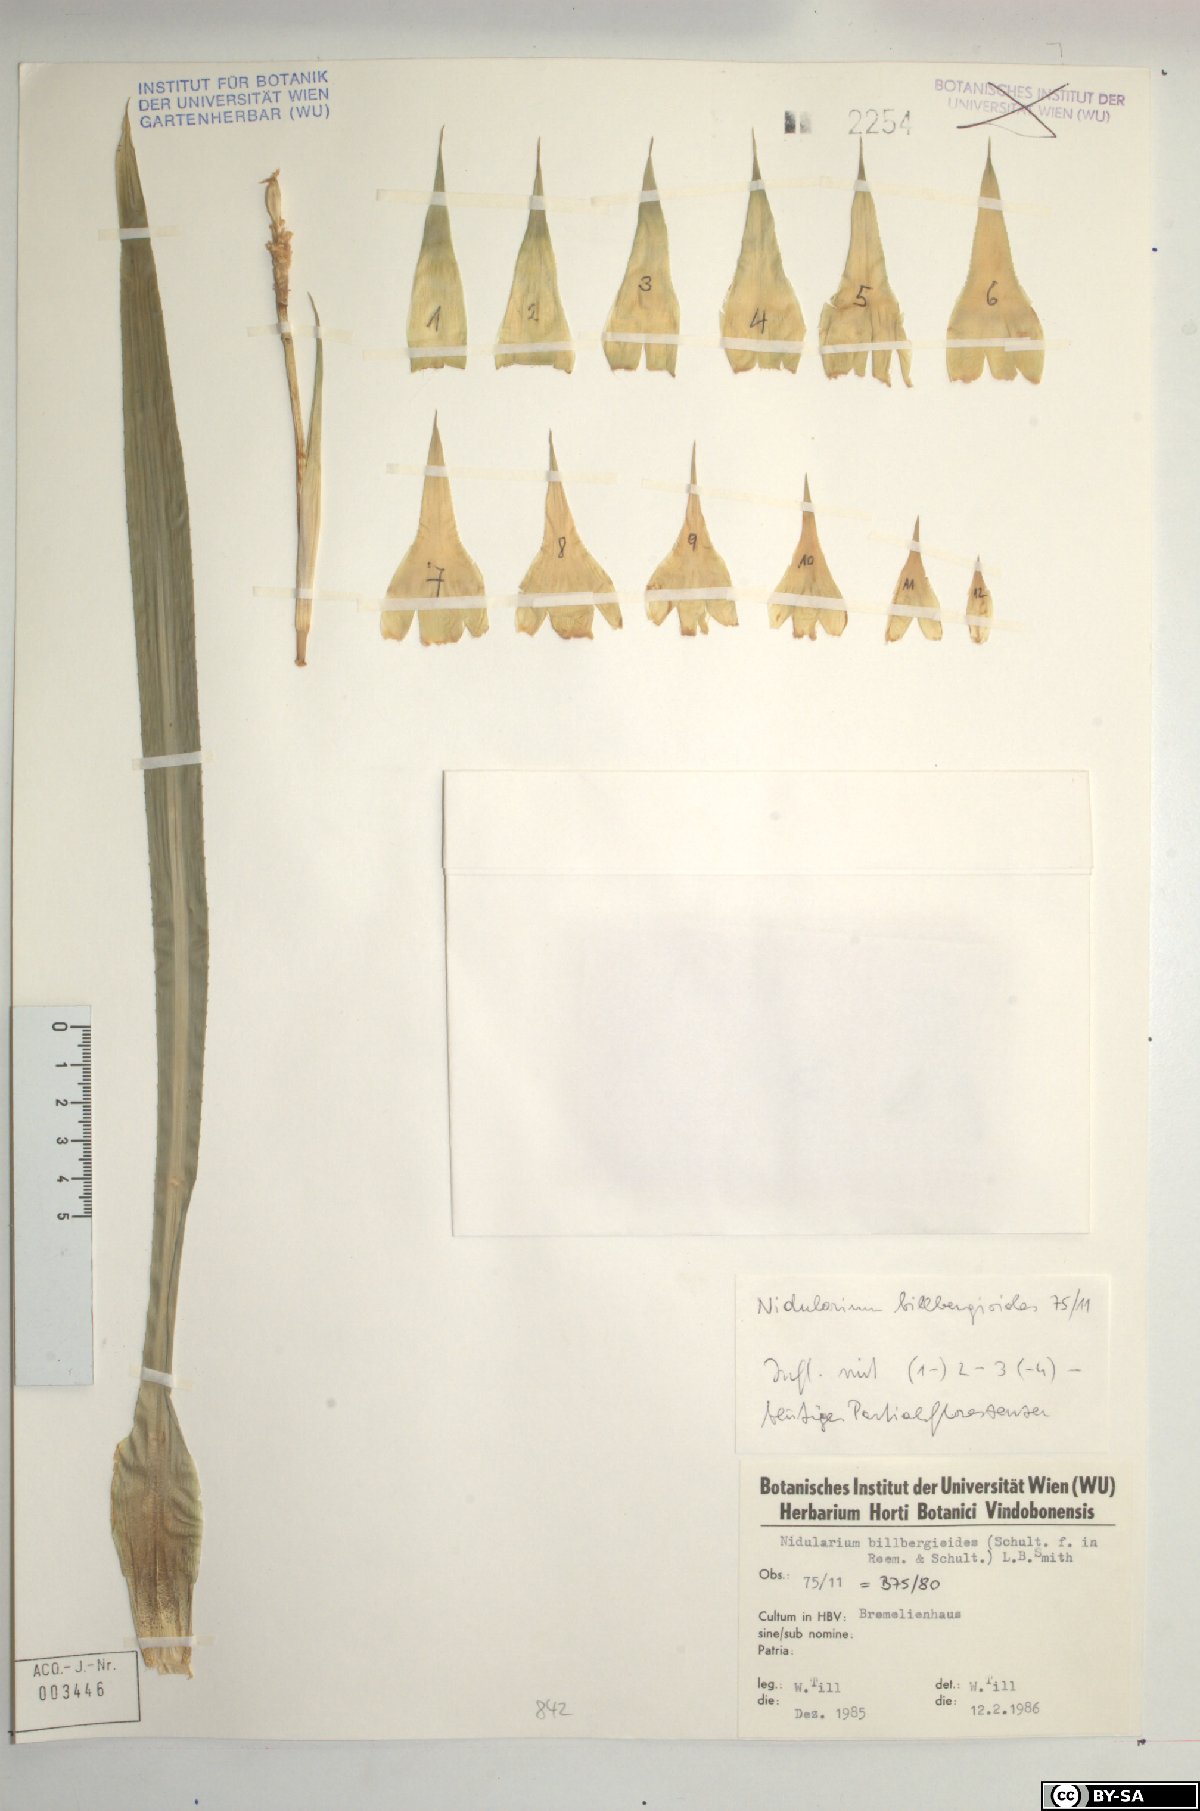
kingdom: Plantae
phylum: Tracheophyta
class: Liliopsida
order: Poales
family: Bromeliaceae
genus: Canistropsis
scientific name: Canistropsis billbergioides
